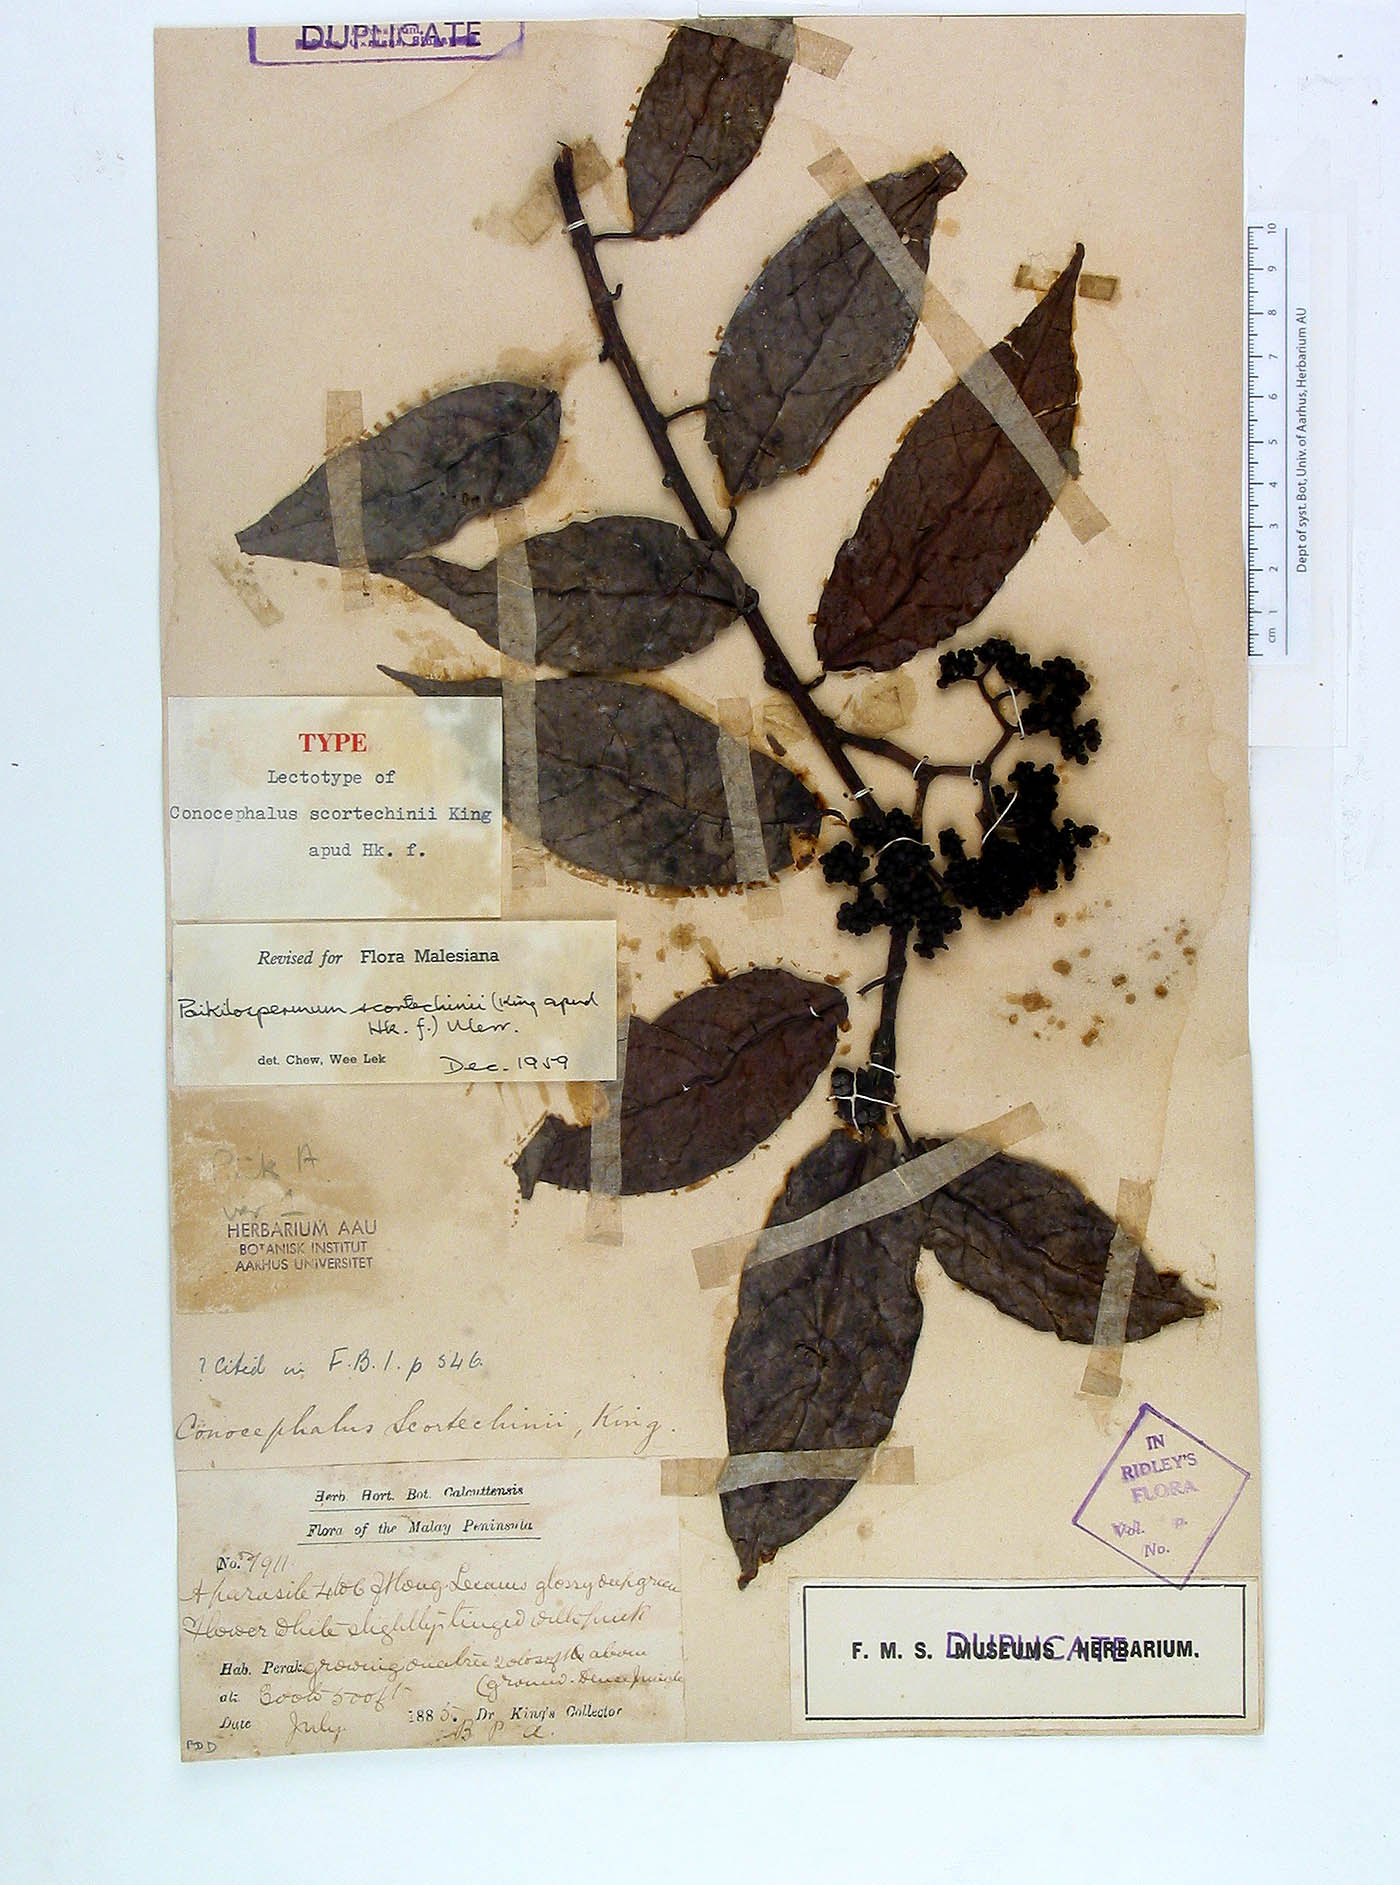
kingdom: Plantae
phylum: Tracheophyta
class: Magnoliopsida
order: Rosales
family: Urticaceae
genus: Poikilospermum
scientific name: Poikilospermum scortechinii
